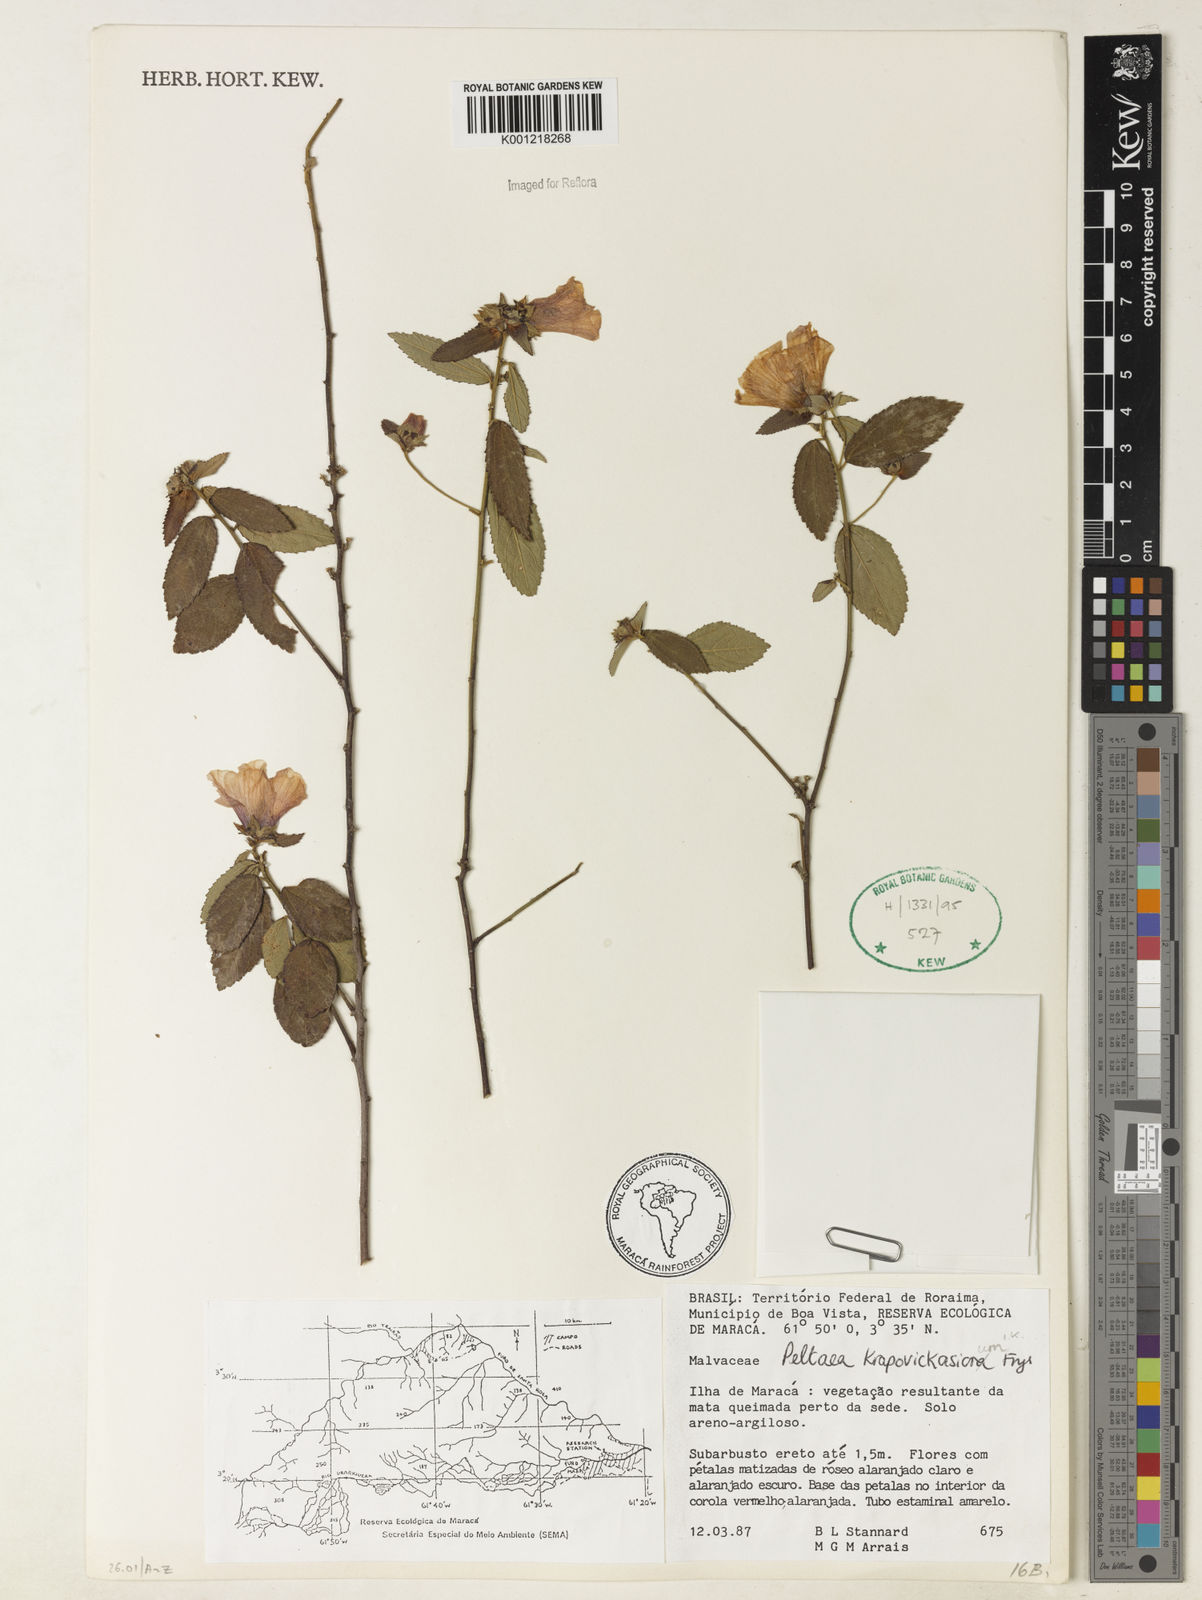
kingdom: Plantae
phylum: Tracheophyta
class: Magnoliopsida
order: Malvales
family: Malvaceae
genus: Peltaea
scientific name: Peltaea krapovickasiorum
